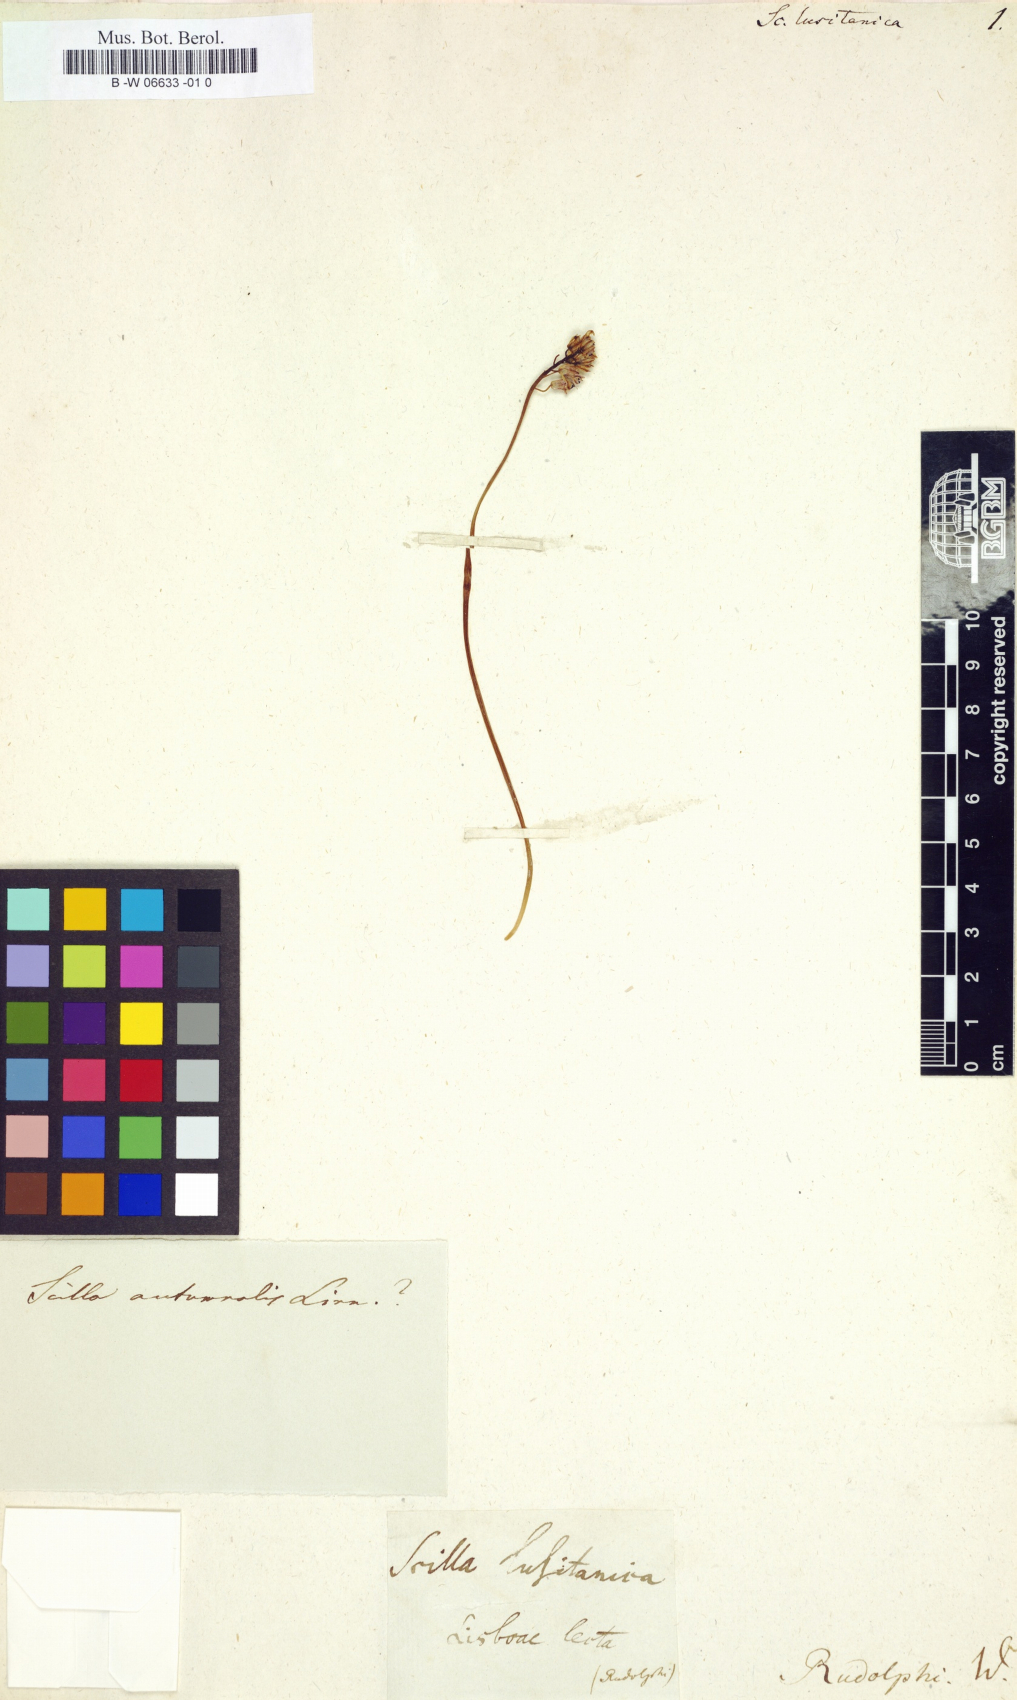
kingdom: Plantae
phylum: Tracheophyta
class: Liliopsida
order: Asparagales
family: Asparagaceae
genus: Scilla
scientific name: Scilla lusitanica
